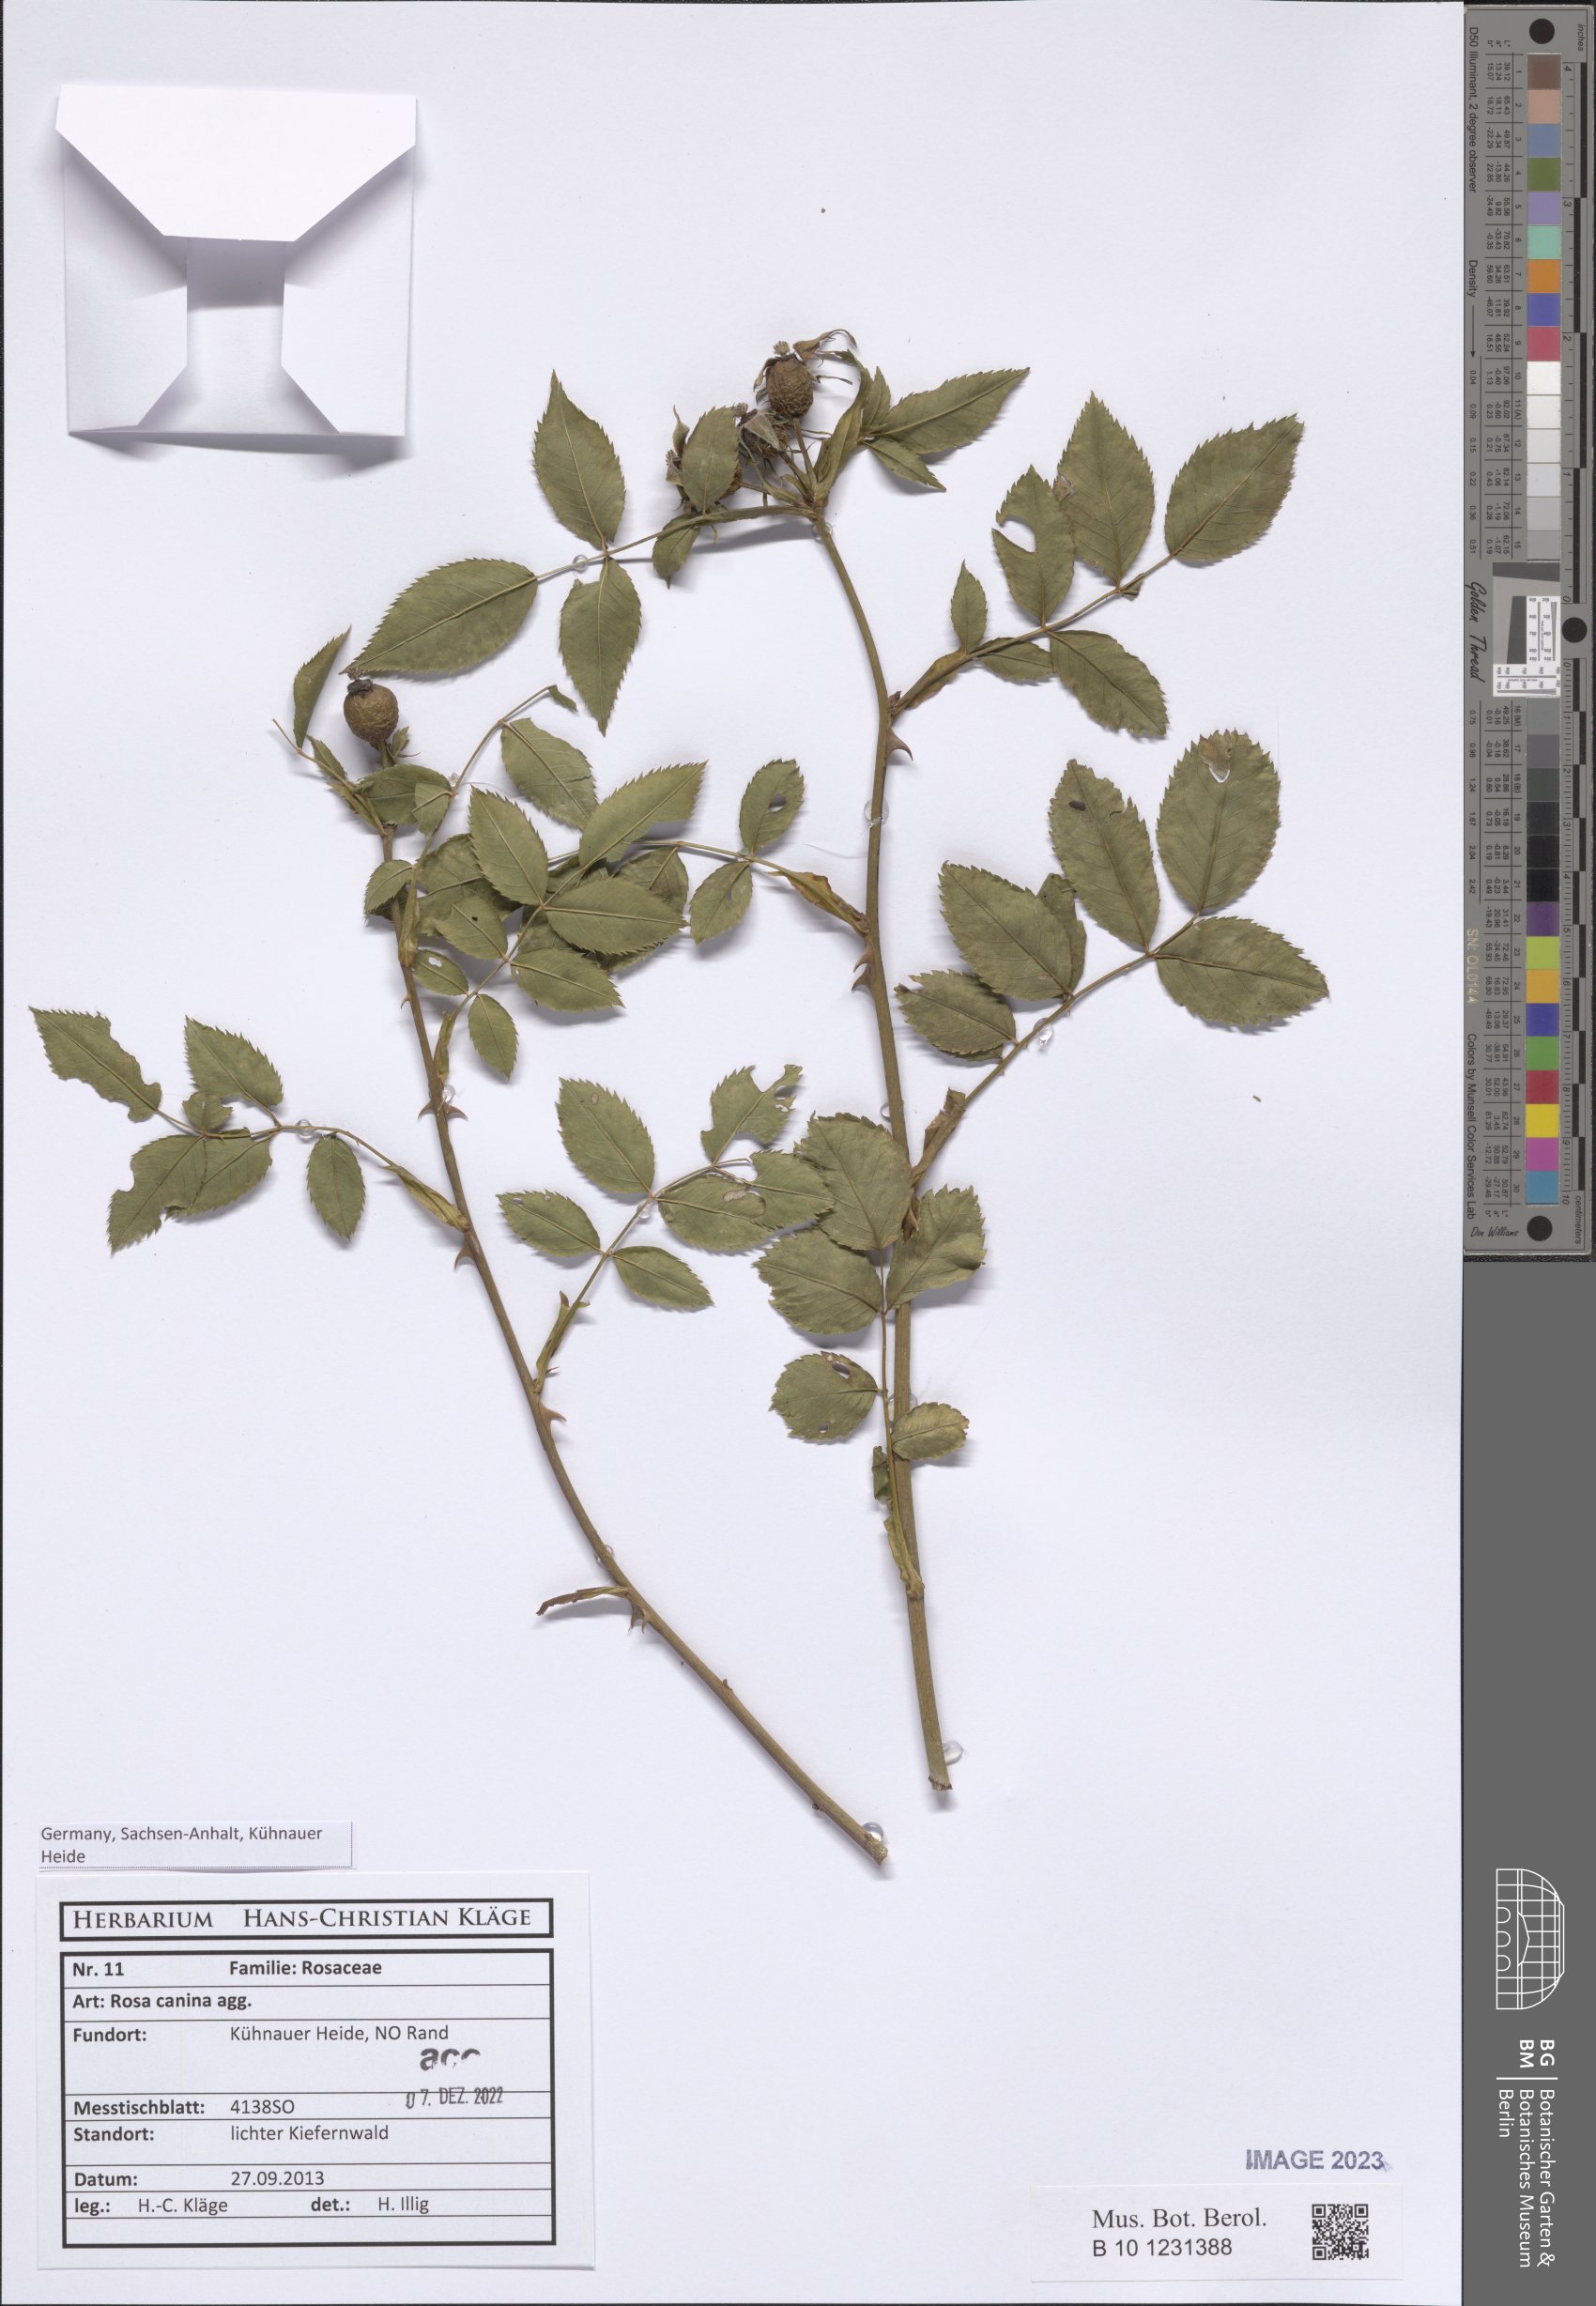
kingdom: Plantae
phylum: Tracheophyta
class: Magnoliopsida
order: Rosales
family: Rosaceae
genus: Rosa
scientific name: Rosa canina
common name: Dog rose
